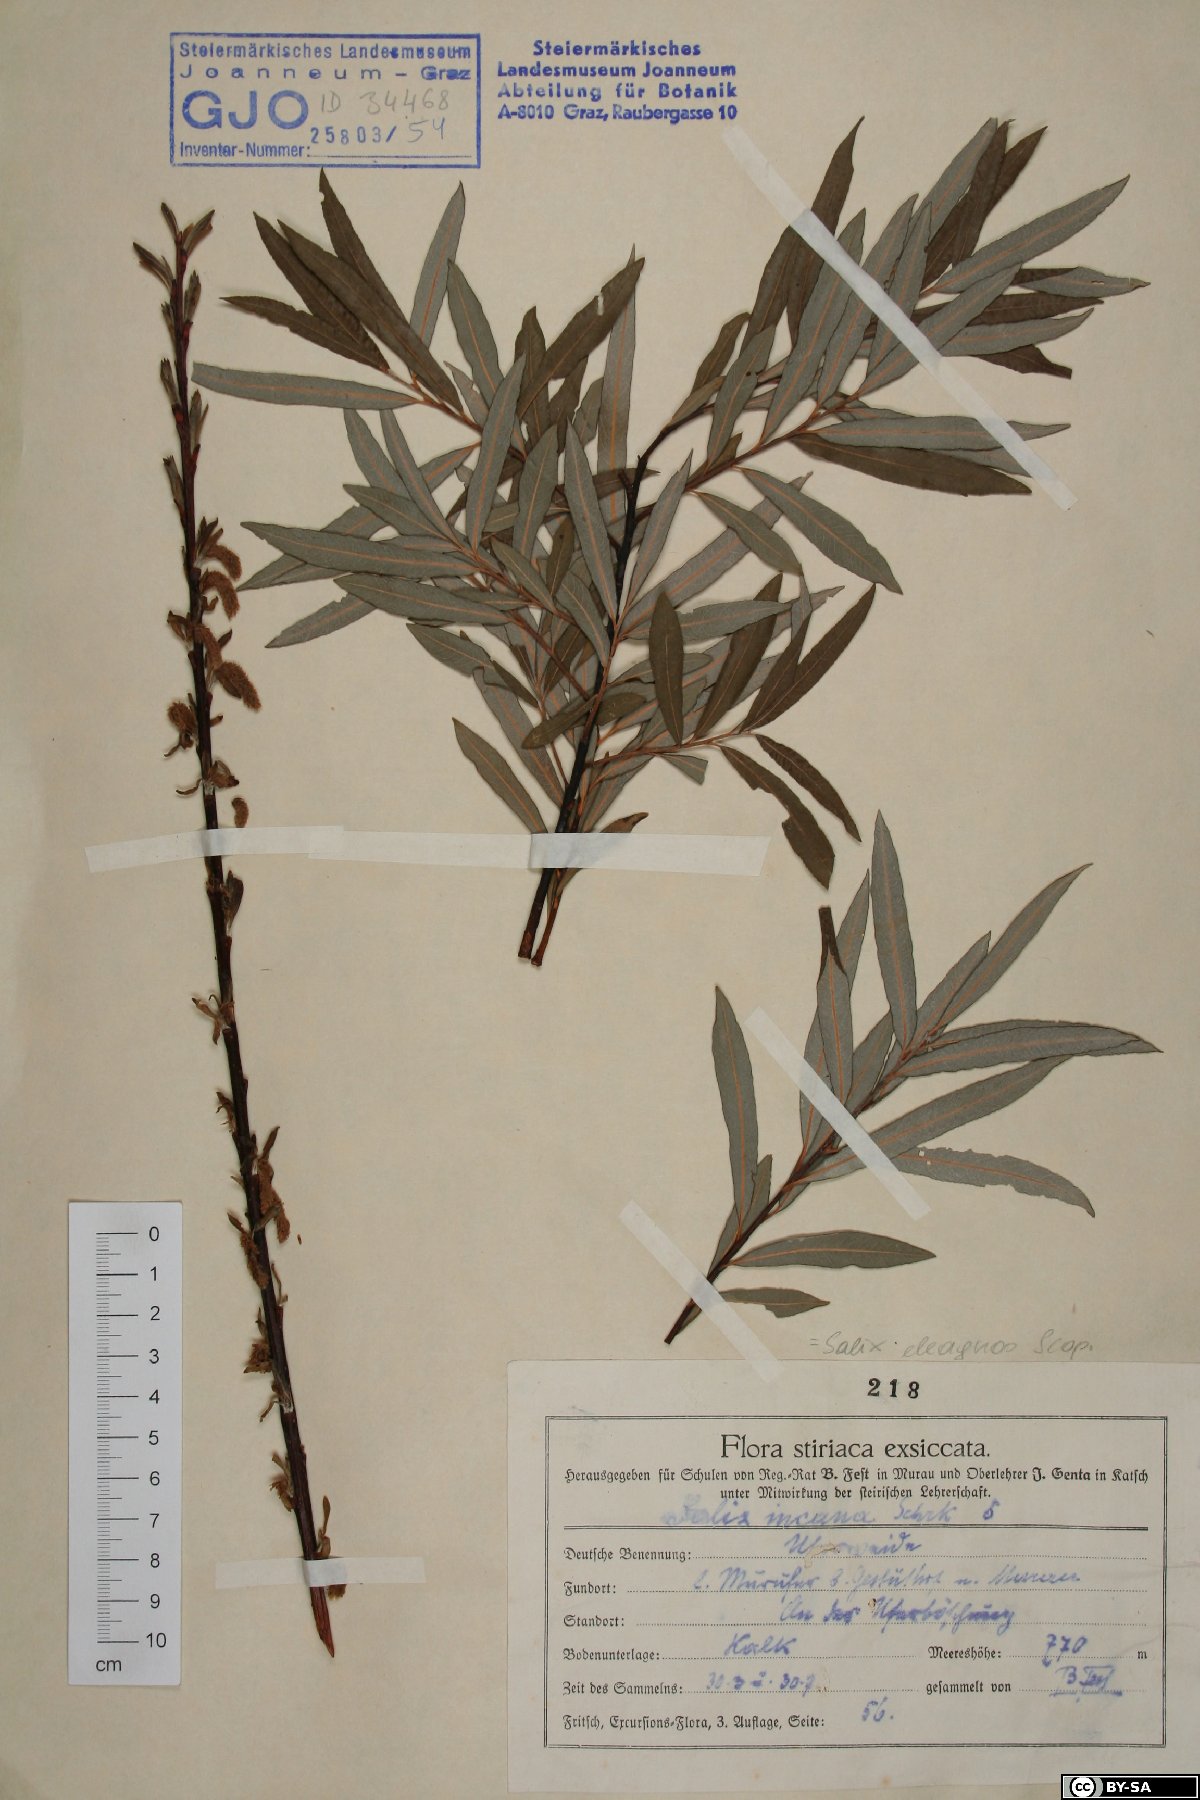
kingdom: Plantae
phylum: Tracheophyta
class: Magnoliopsida
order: Malpighiales
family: Salicaceae
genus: Salix
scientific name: Salix eleagnos
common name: Elaeagnus willow
